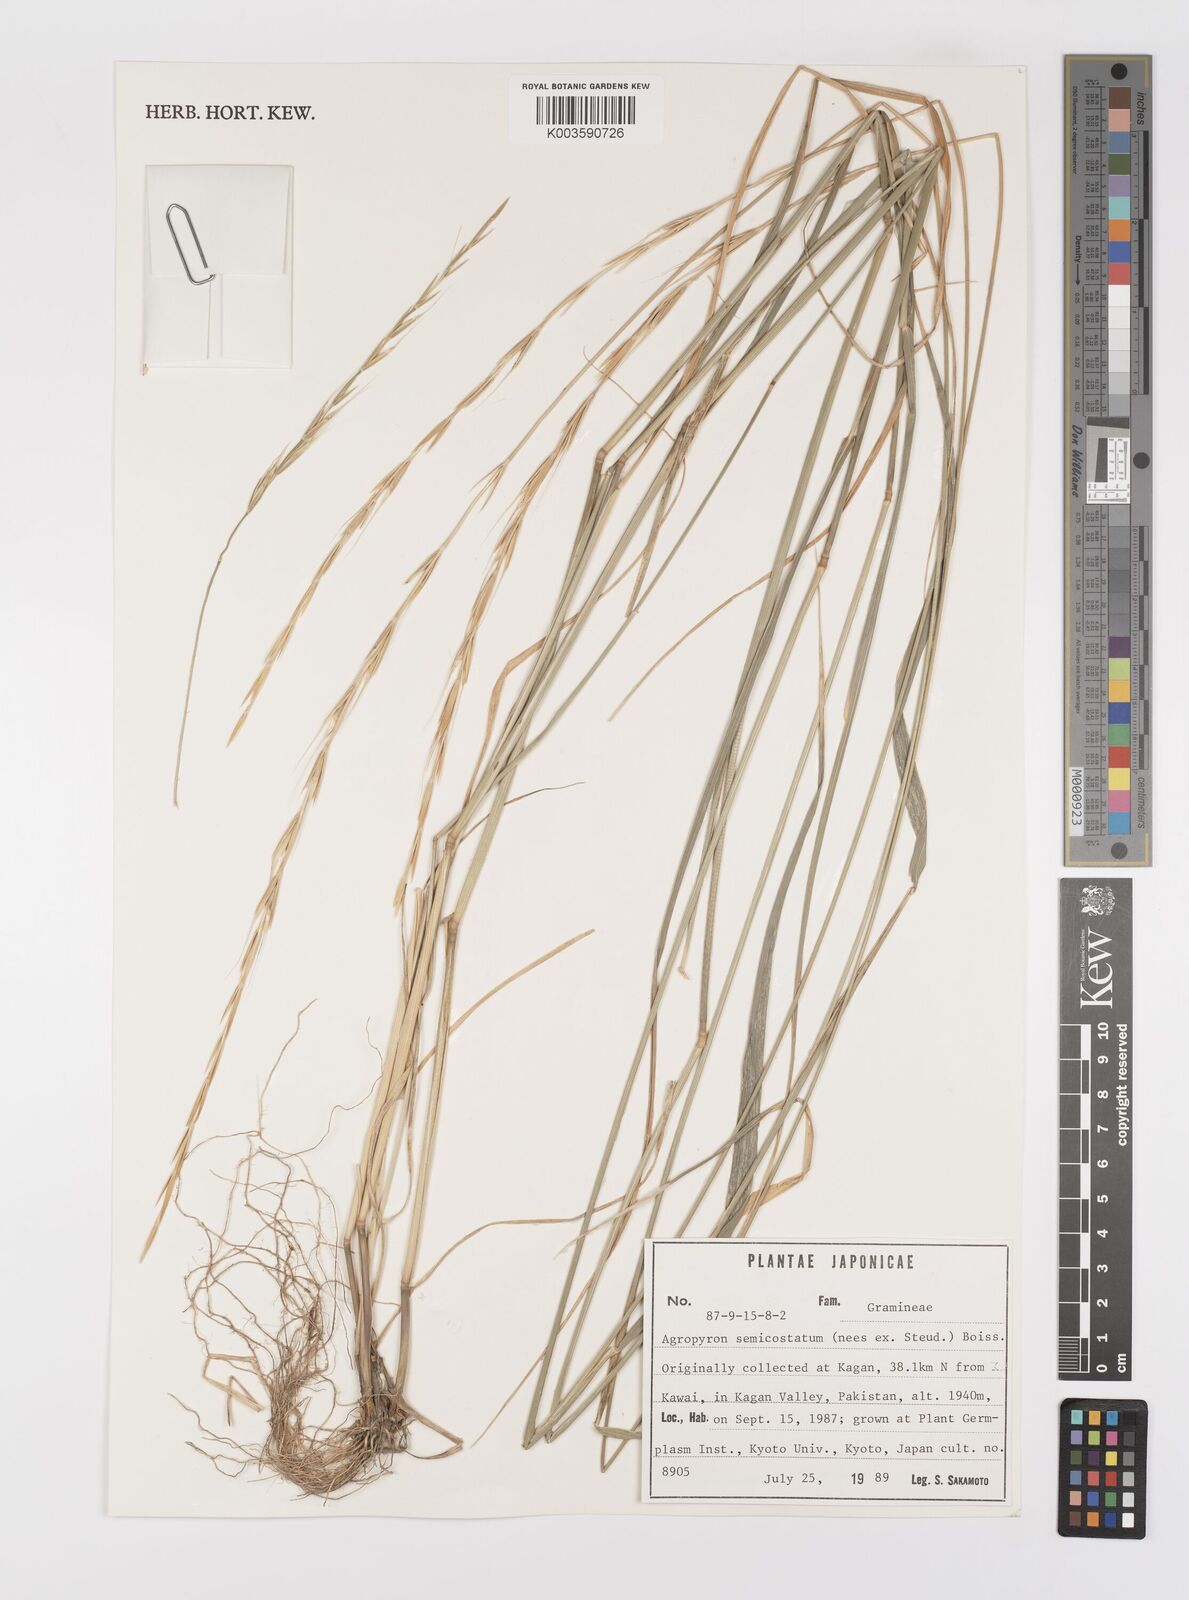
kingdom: Plantae
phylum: Tracheophyta
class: Liliopsida
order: Poales
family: Poaceae
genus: Elymus
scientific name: Elymus semicostatus
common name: Drooping wildrye
